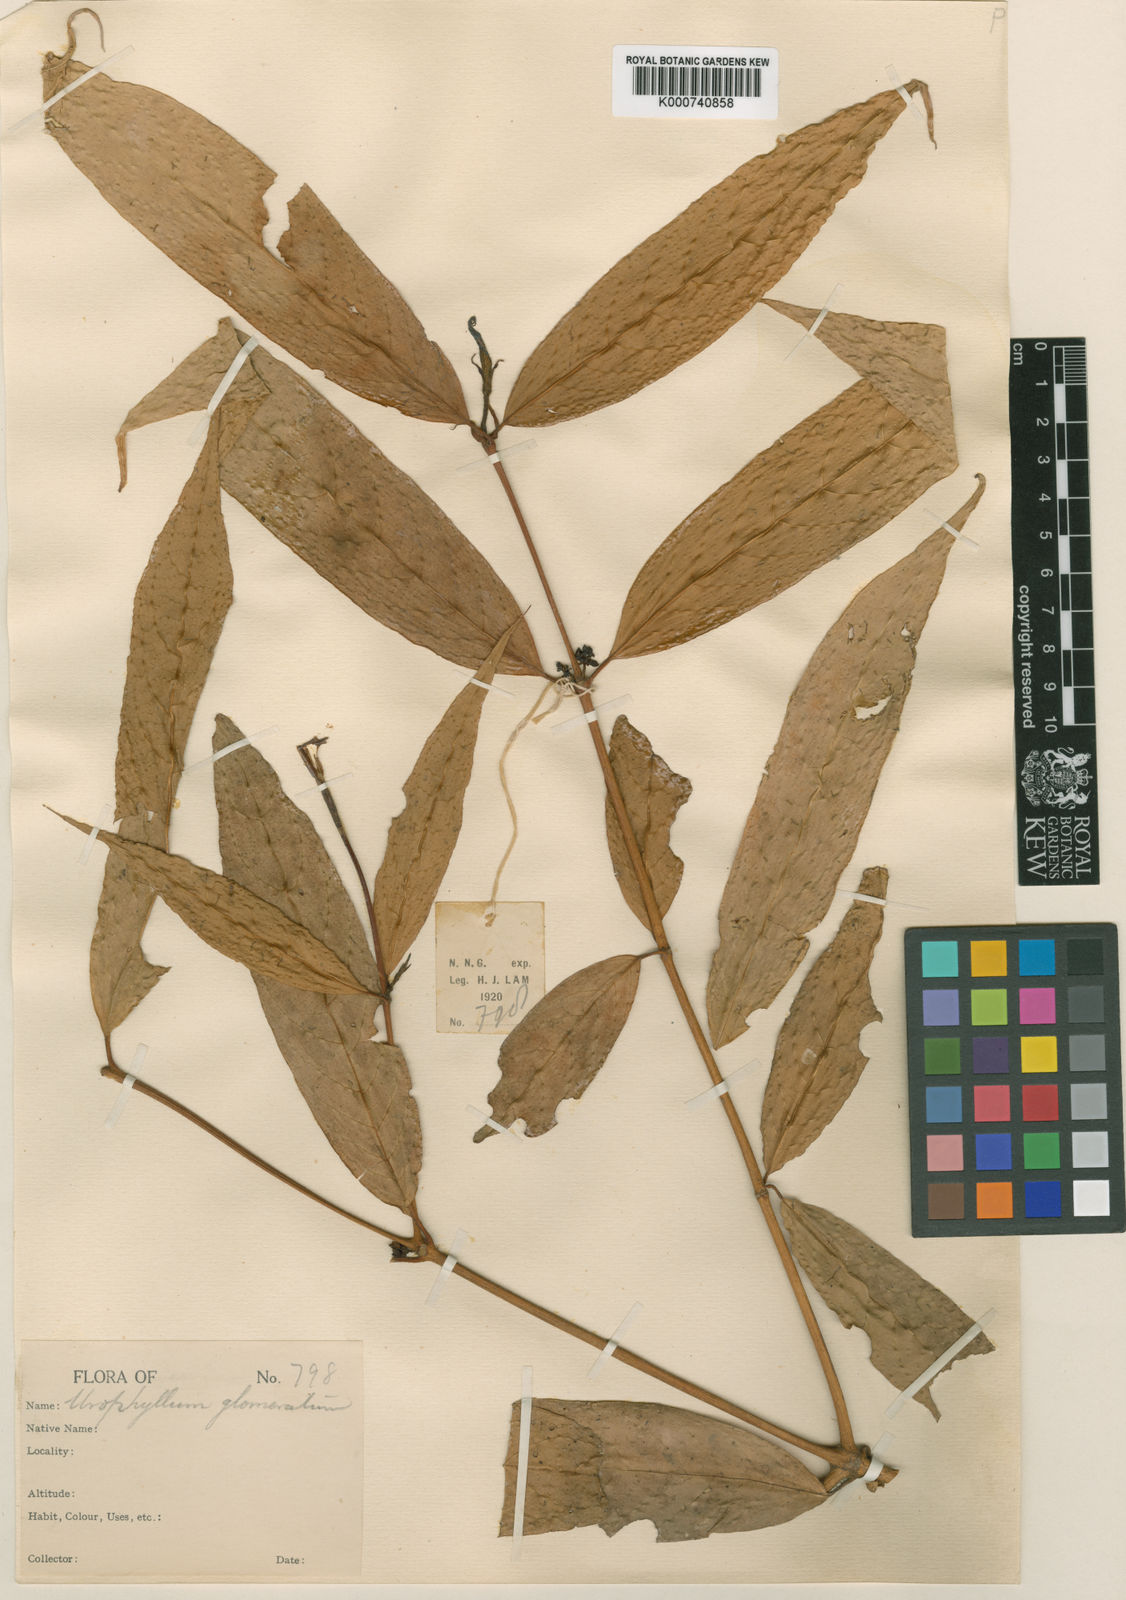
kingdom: Plantae
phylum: Tracheophyta
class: Magnoliopsida
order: Gentianales
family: Rubiaceae
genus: Urophyllum
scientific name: Urophyllum glomeratum
